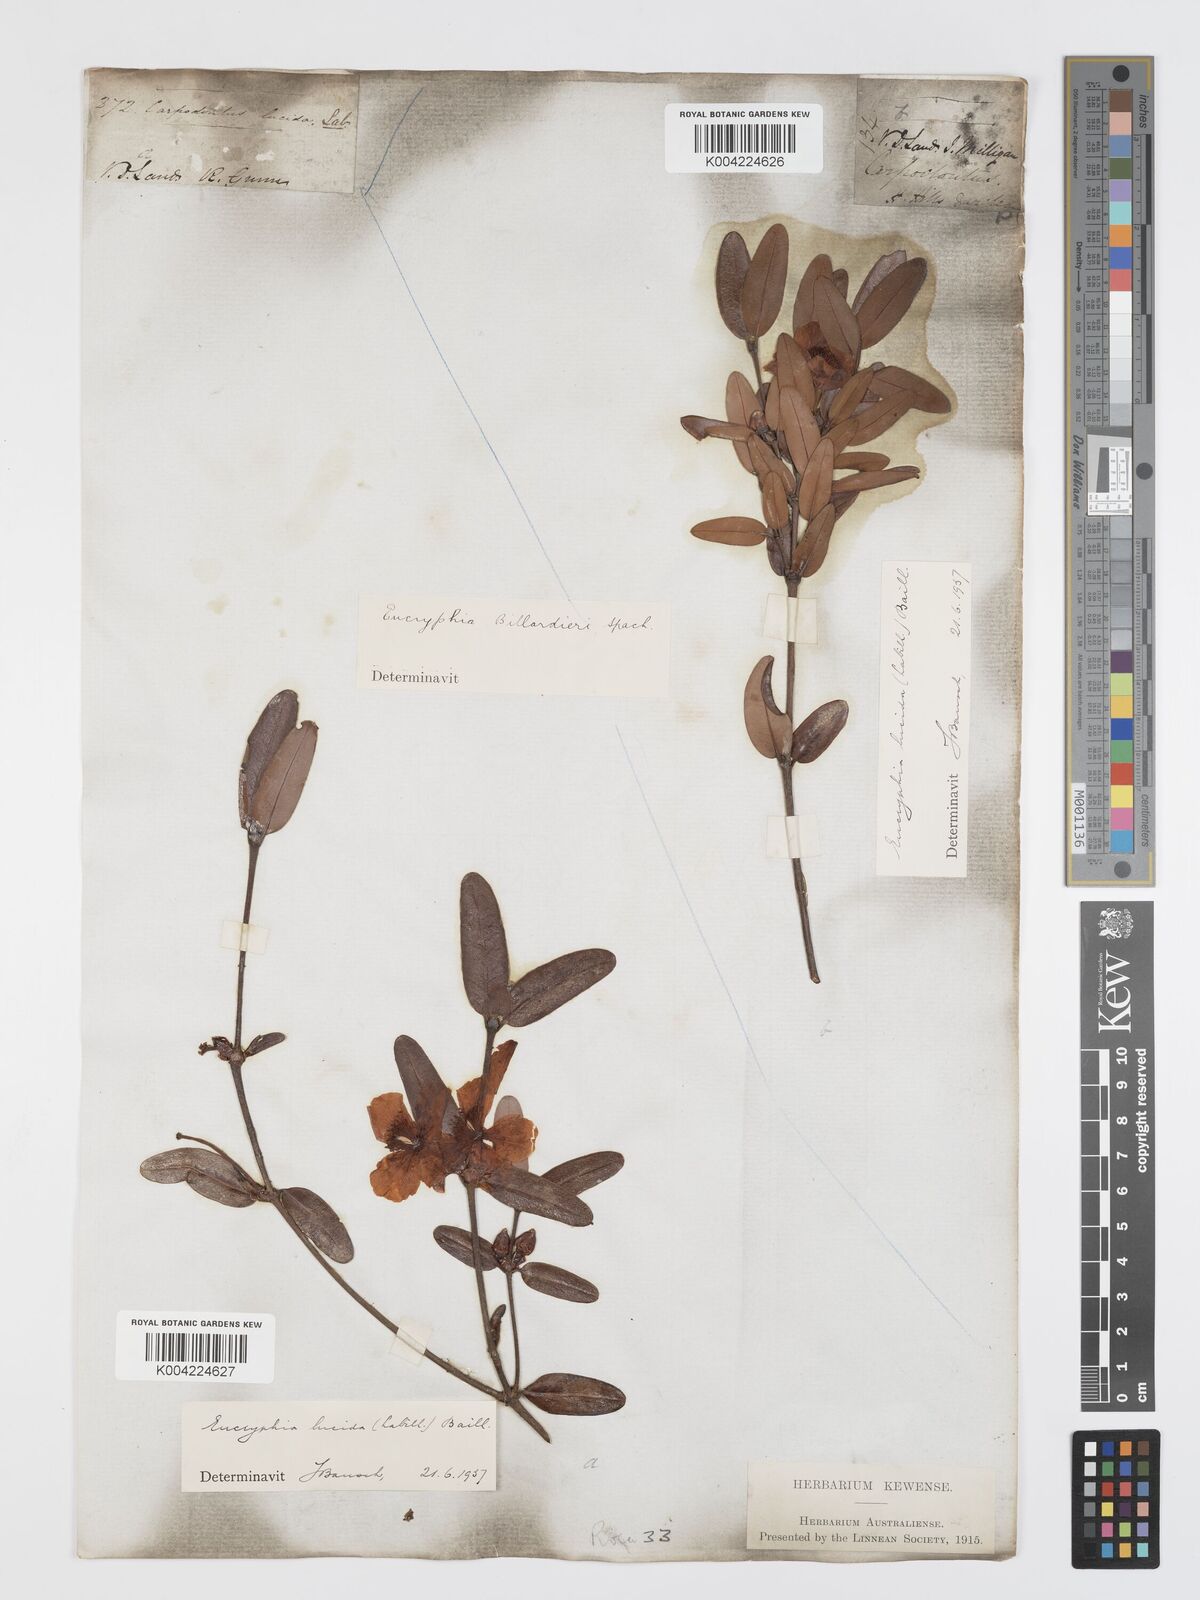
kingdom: Plantae
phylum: Tracheophyta
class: Magnoliopsida
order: Oxalidales
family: Cunoniaceae
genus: Eucryphia
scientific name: Eucryphia lucida
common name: Leatherwood
